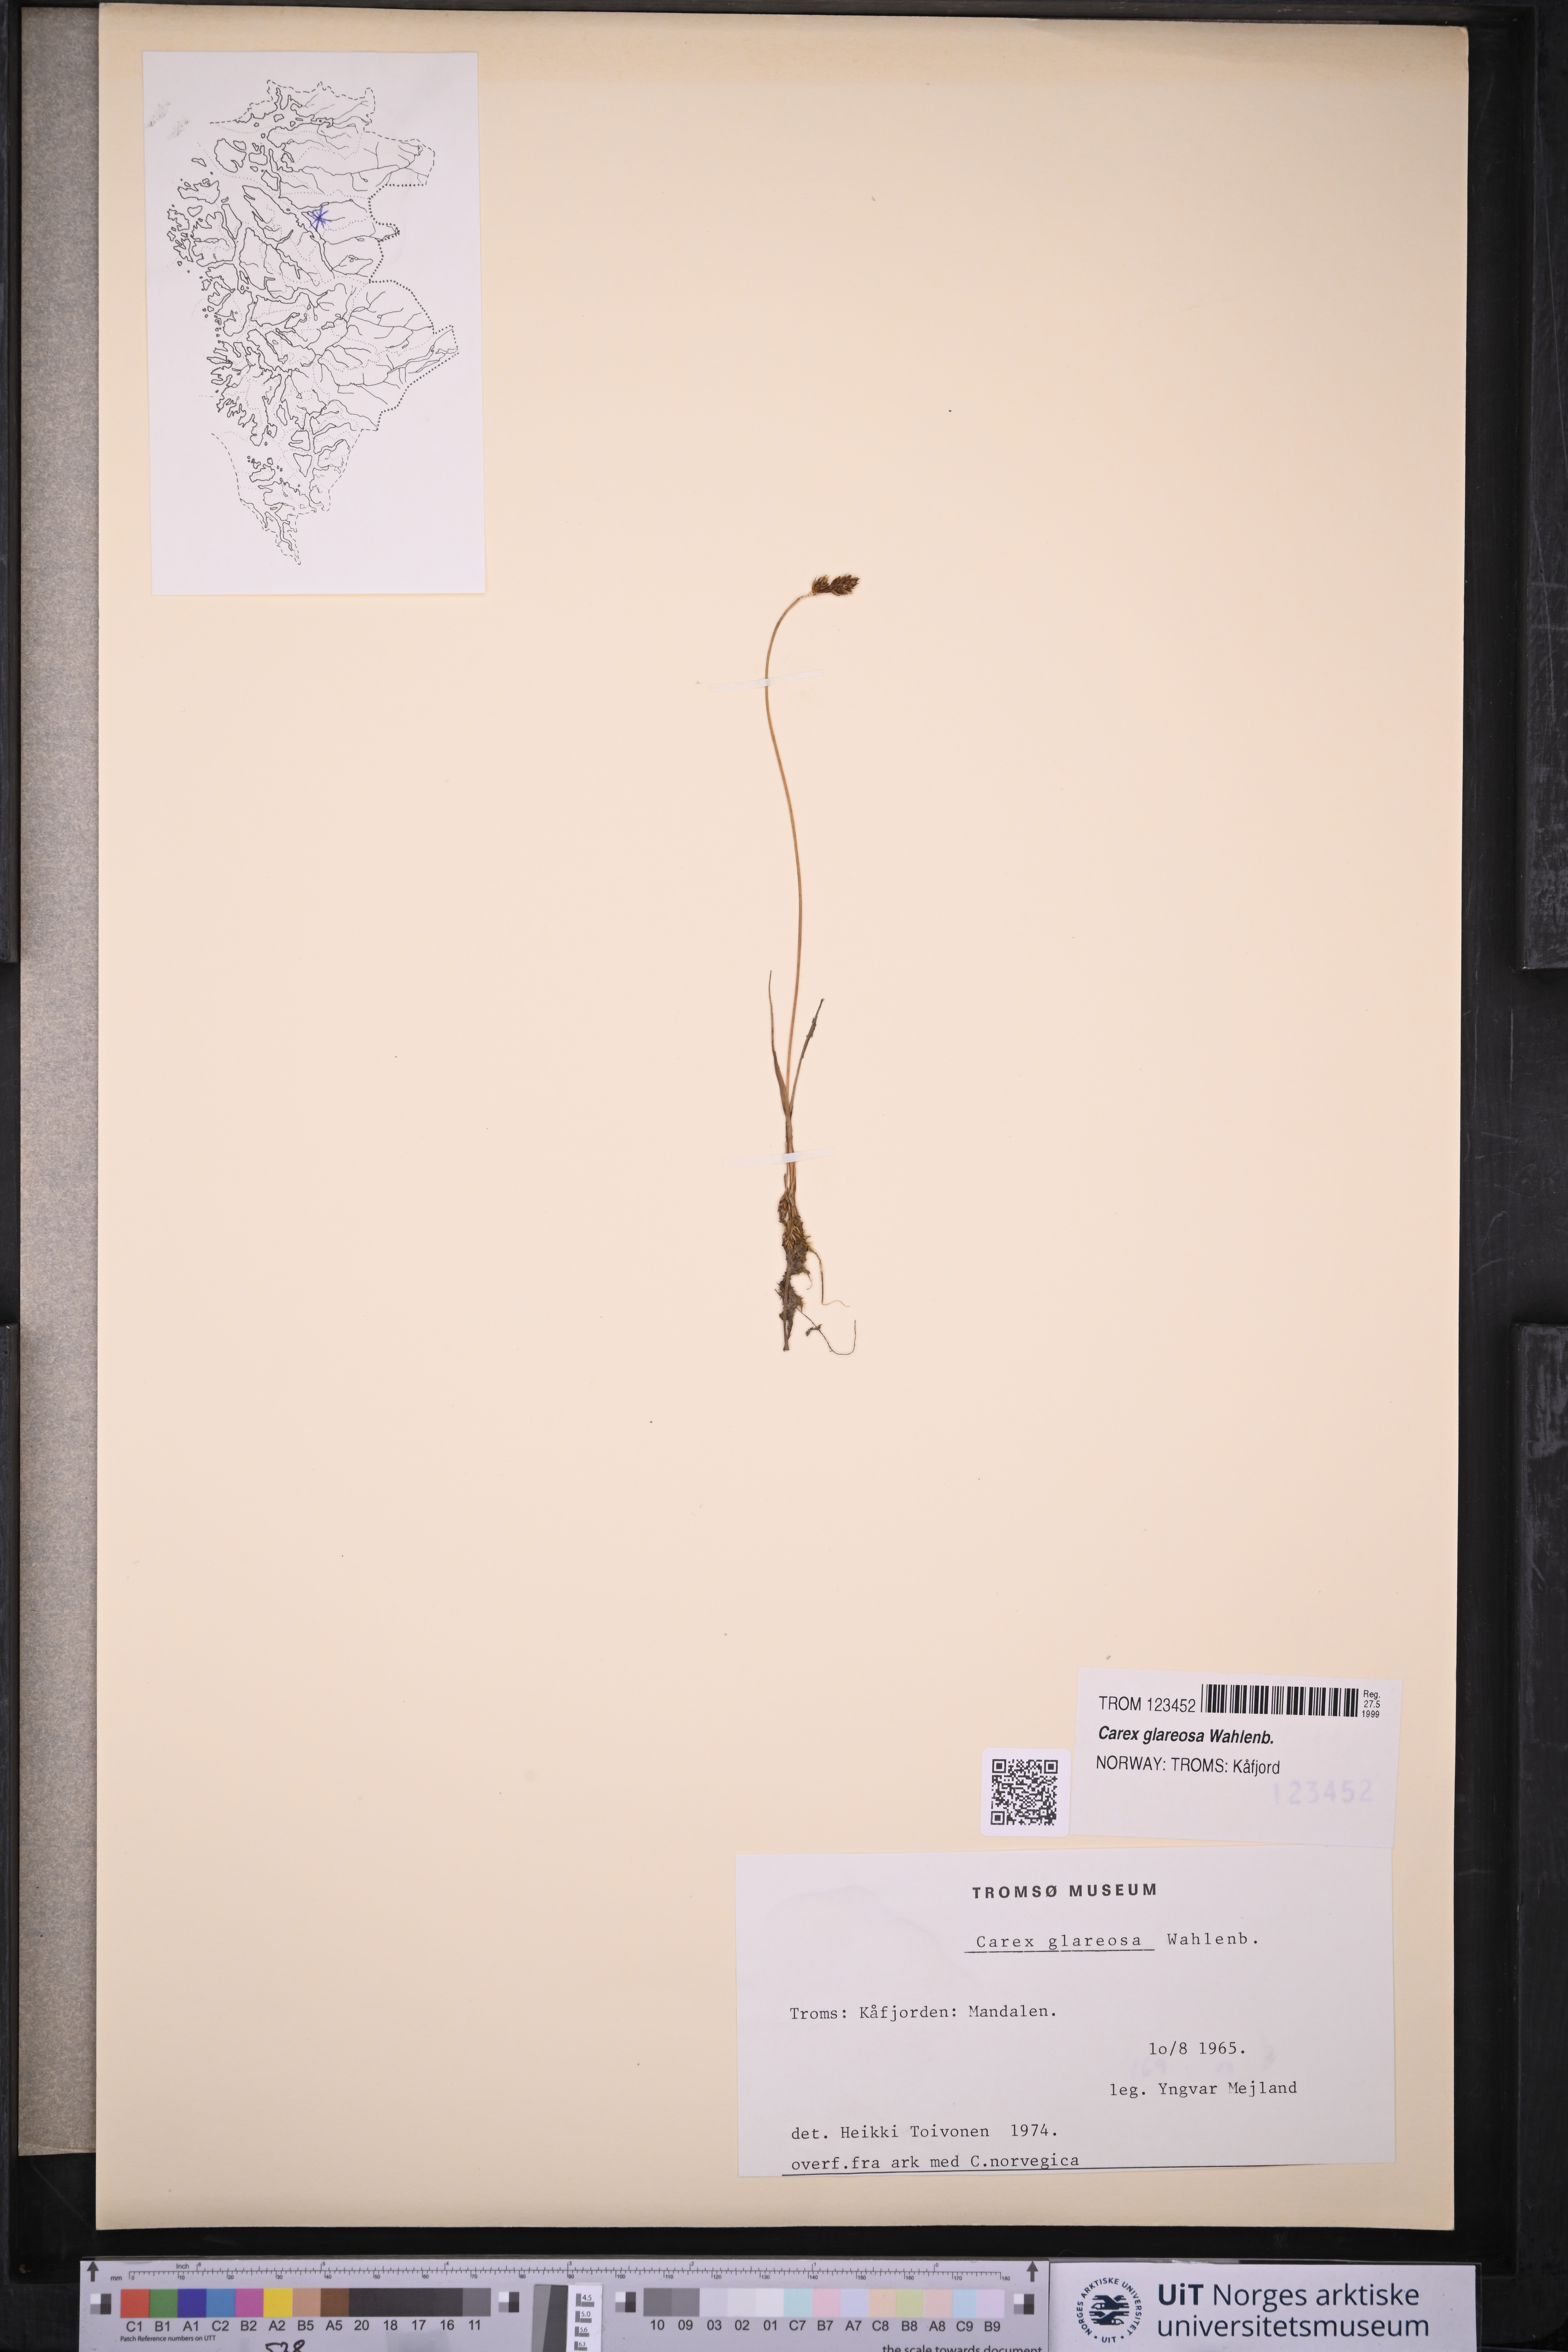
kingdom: Plantae
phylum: Tracheophyta
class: Liliopsida
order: Poales
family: Cyperaceae
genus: Carex
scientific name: Carex glareosa
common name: Clustered sedge
